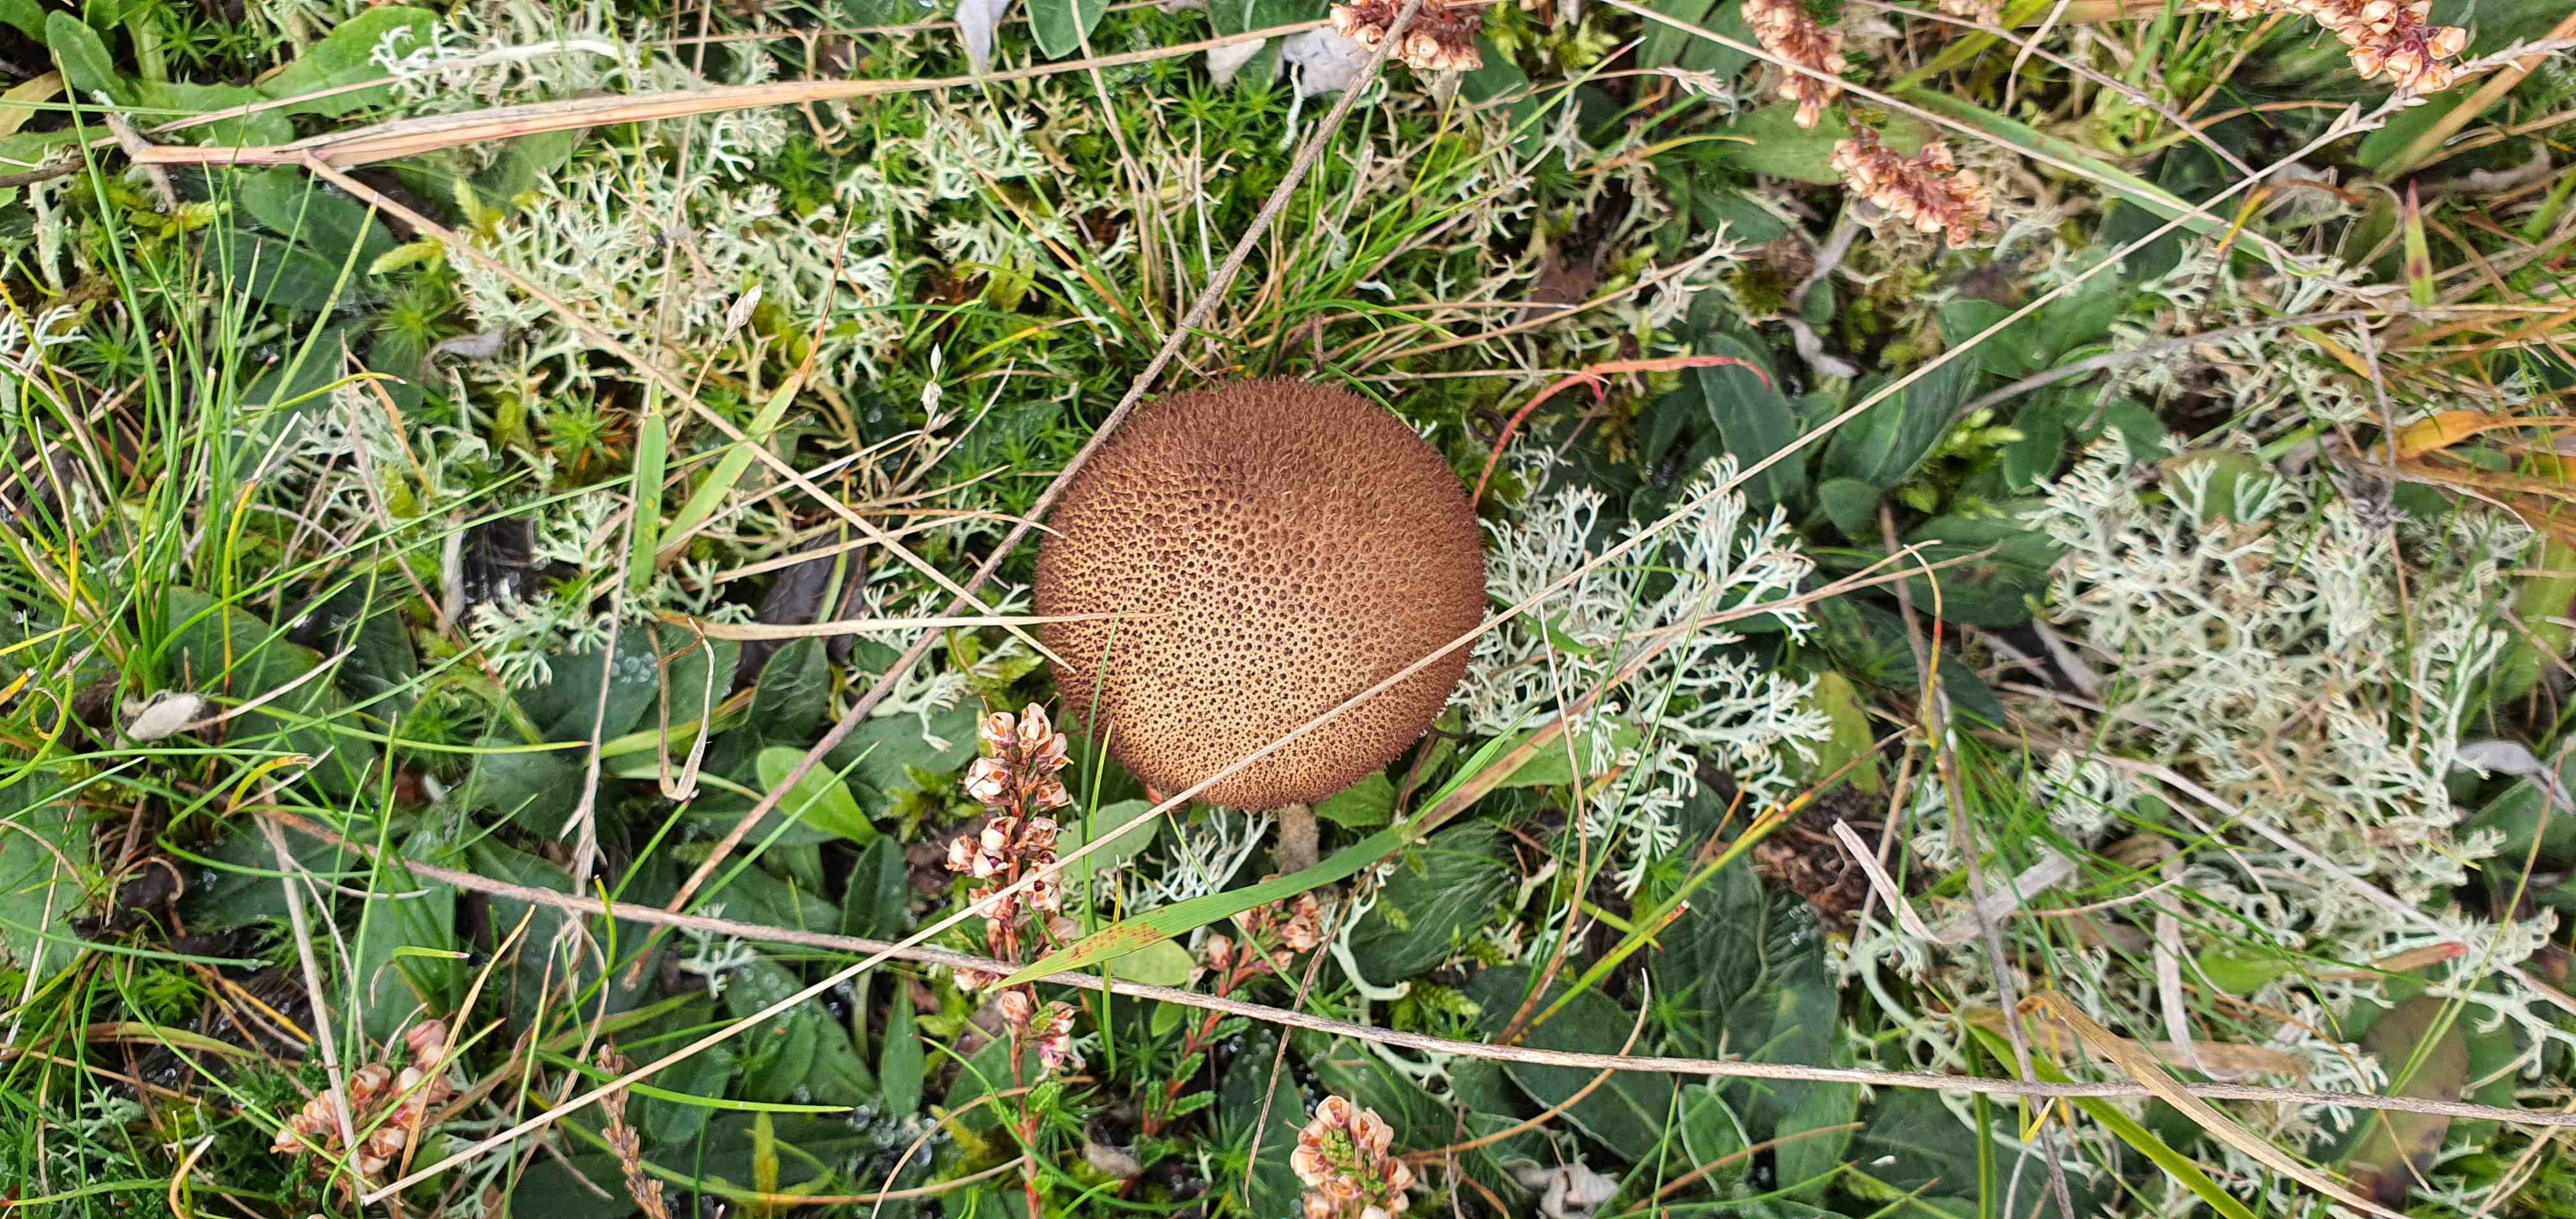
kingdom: Fungi
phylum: Basidiomycota
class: Agaricomycetes
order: Agaricales
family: Lycoperdaceae
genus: Lycoperdon
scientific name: Lycoperdon nigrescens
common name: sortagtig støvbold
